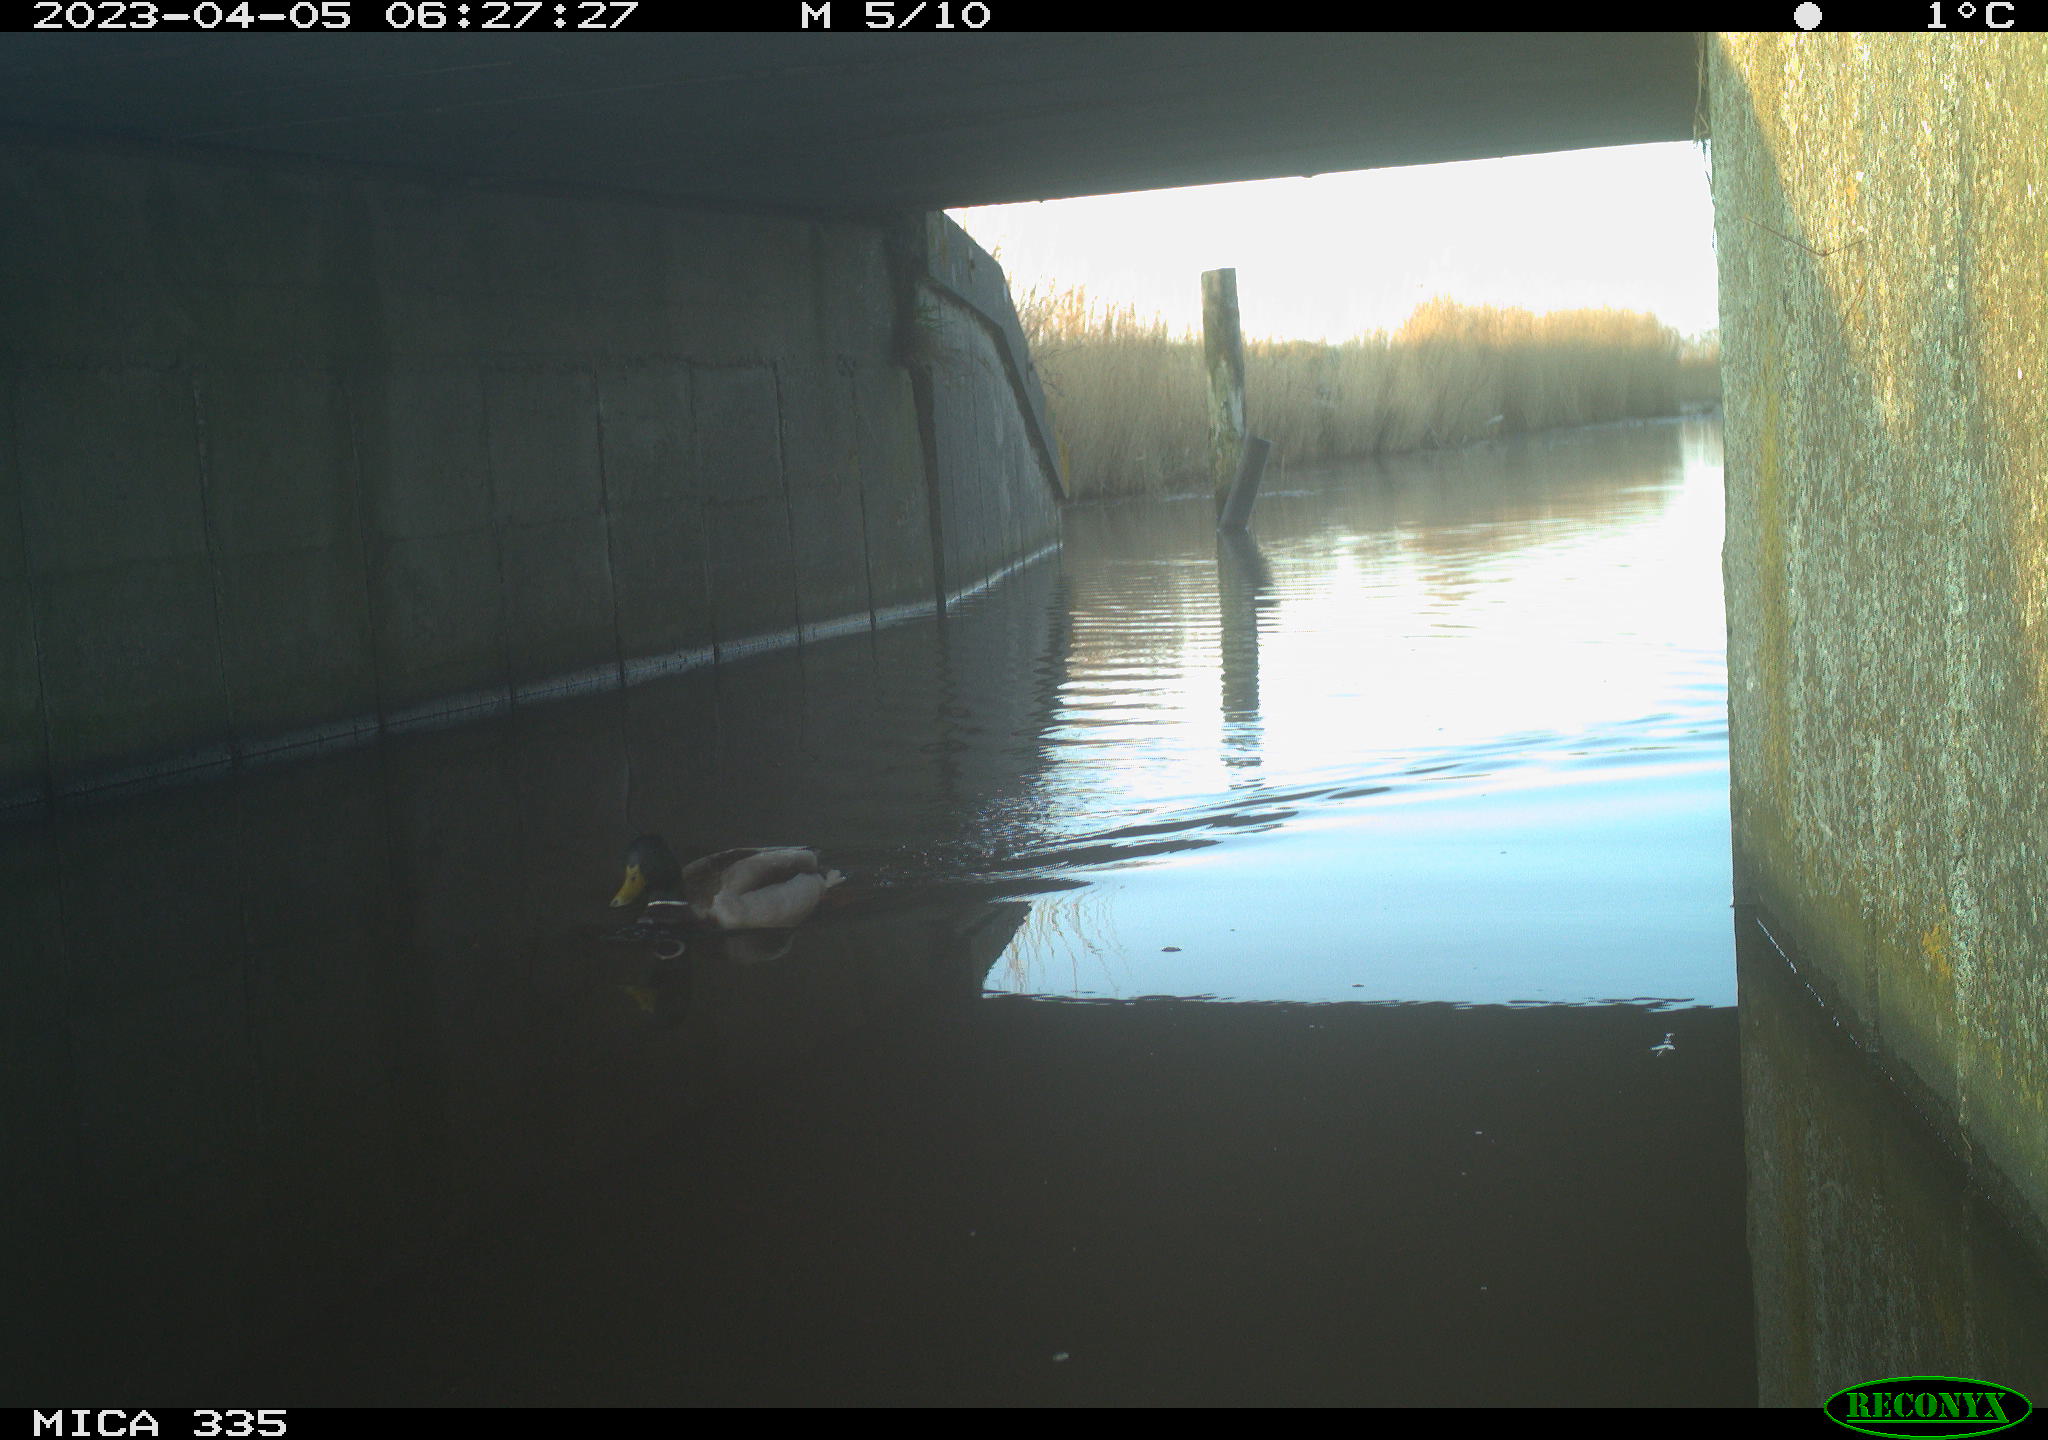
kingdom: Animalia
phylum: Chordata
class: Aves
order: Anseriformes
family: Anatidae
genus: Anas
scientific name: Anas
